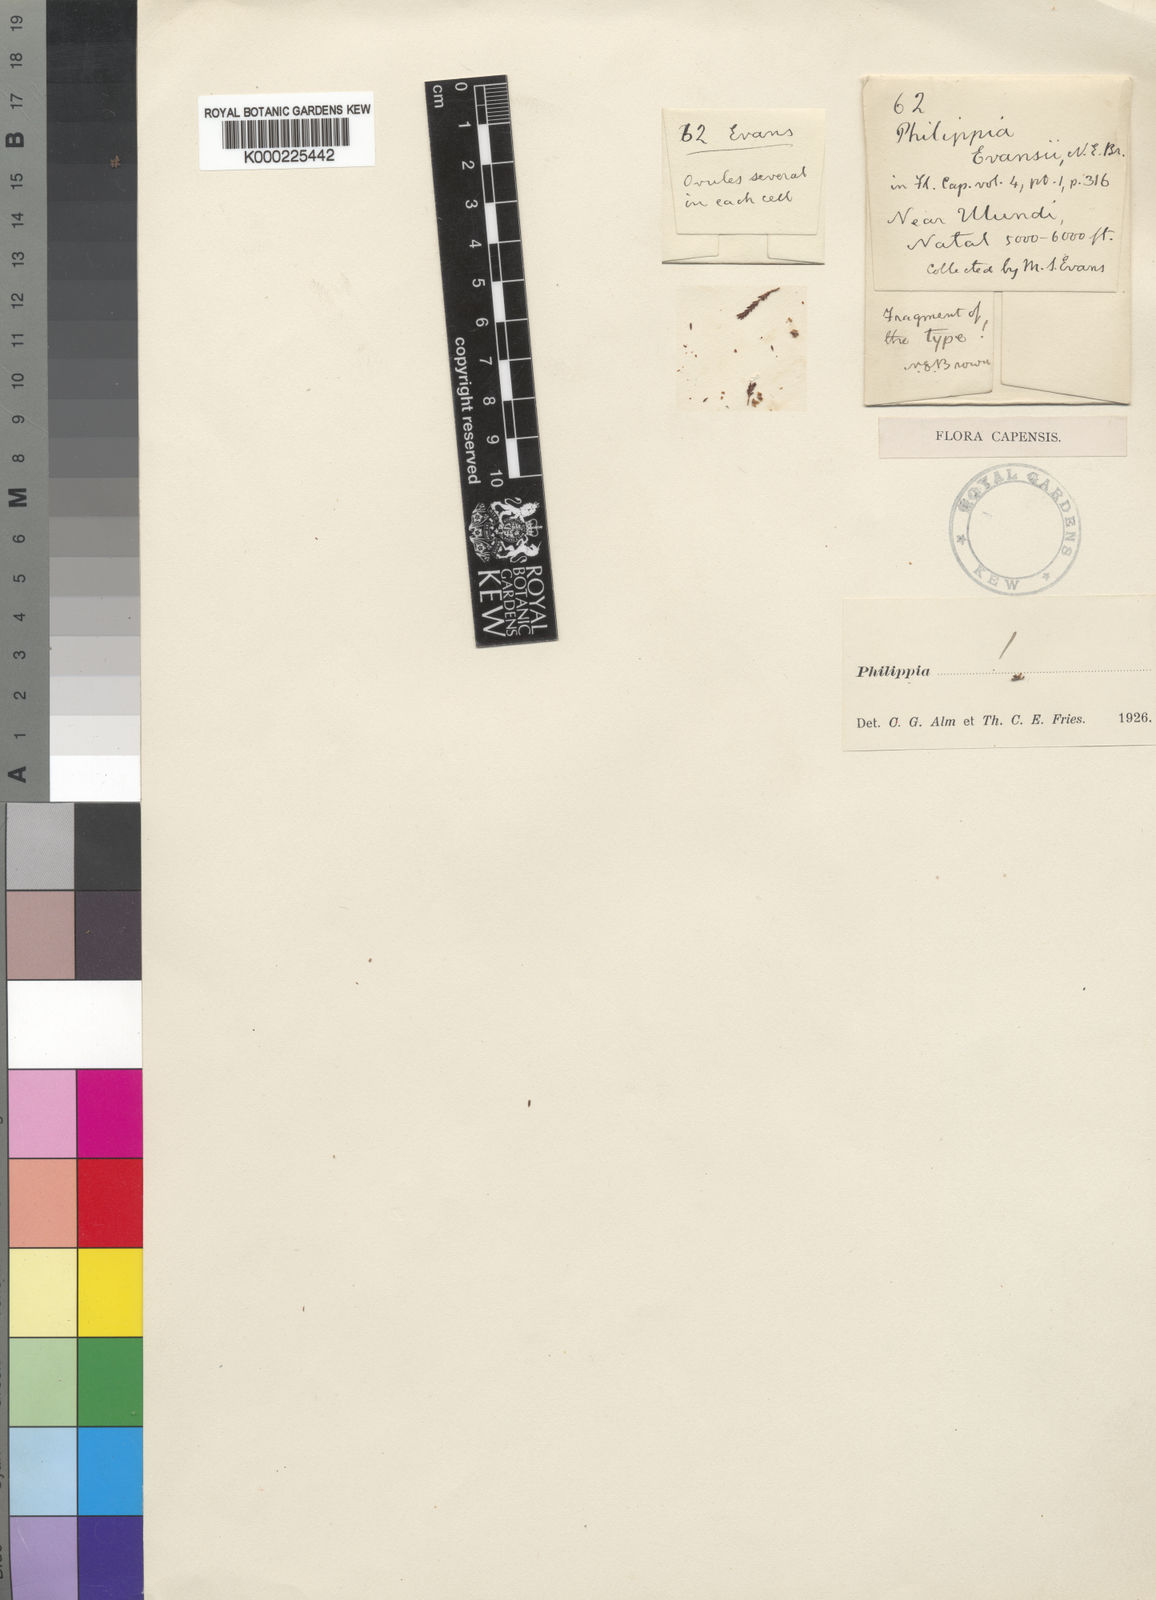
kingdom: Plantae
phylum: Tracheophyta
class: Magnoliopsida
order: Ericales
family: Ericaceae
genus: Erica
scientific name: Erica evansii
